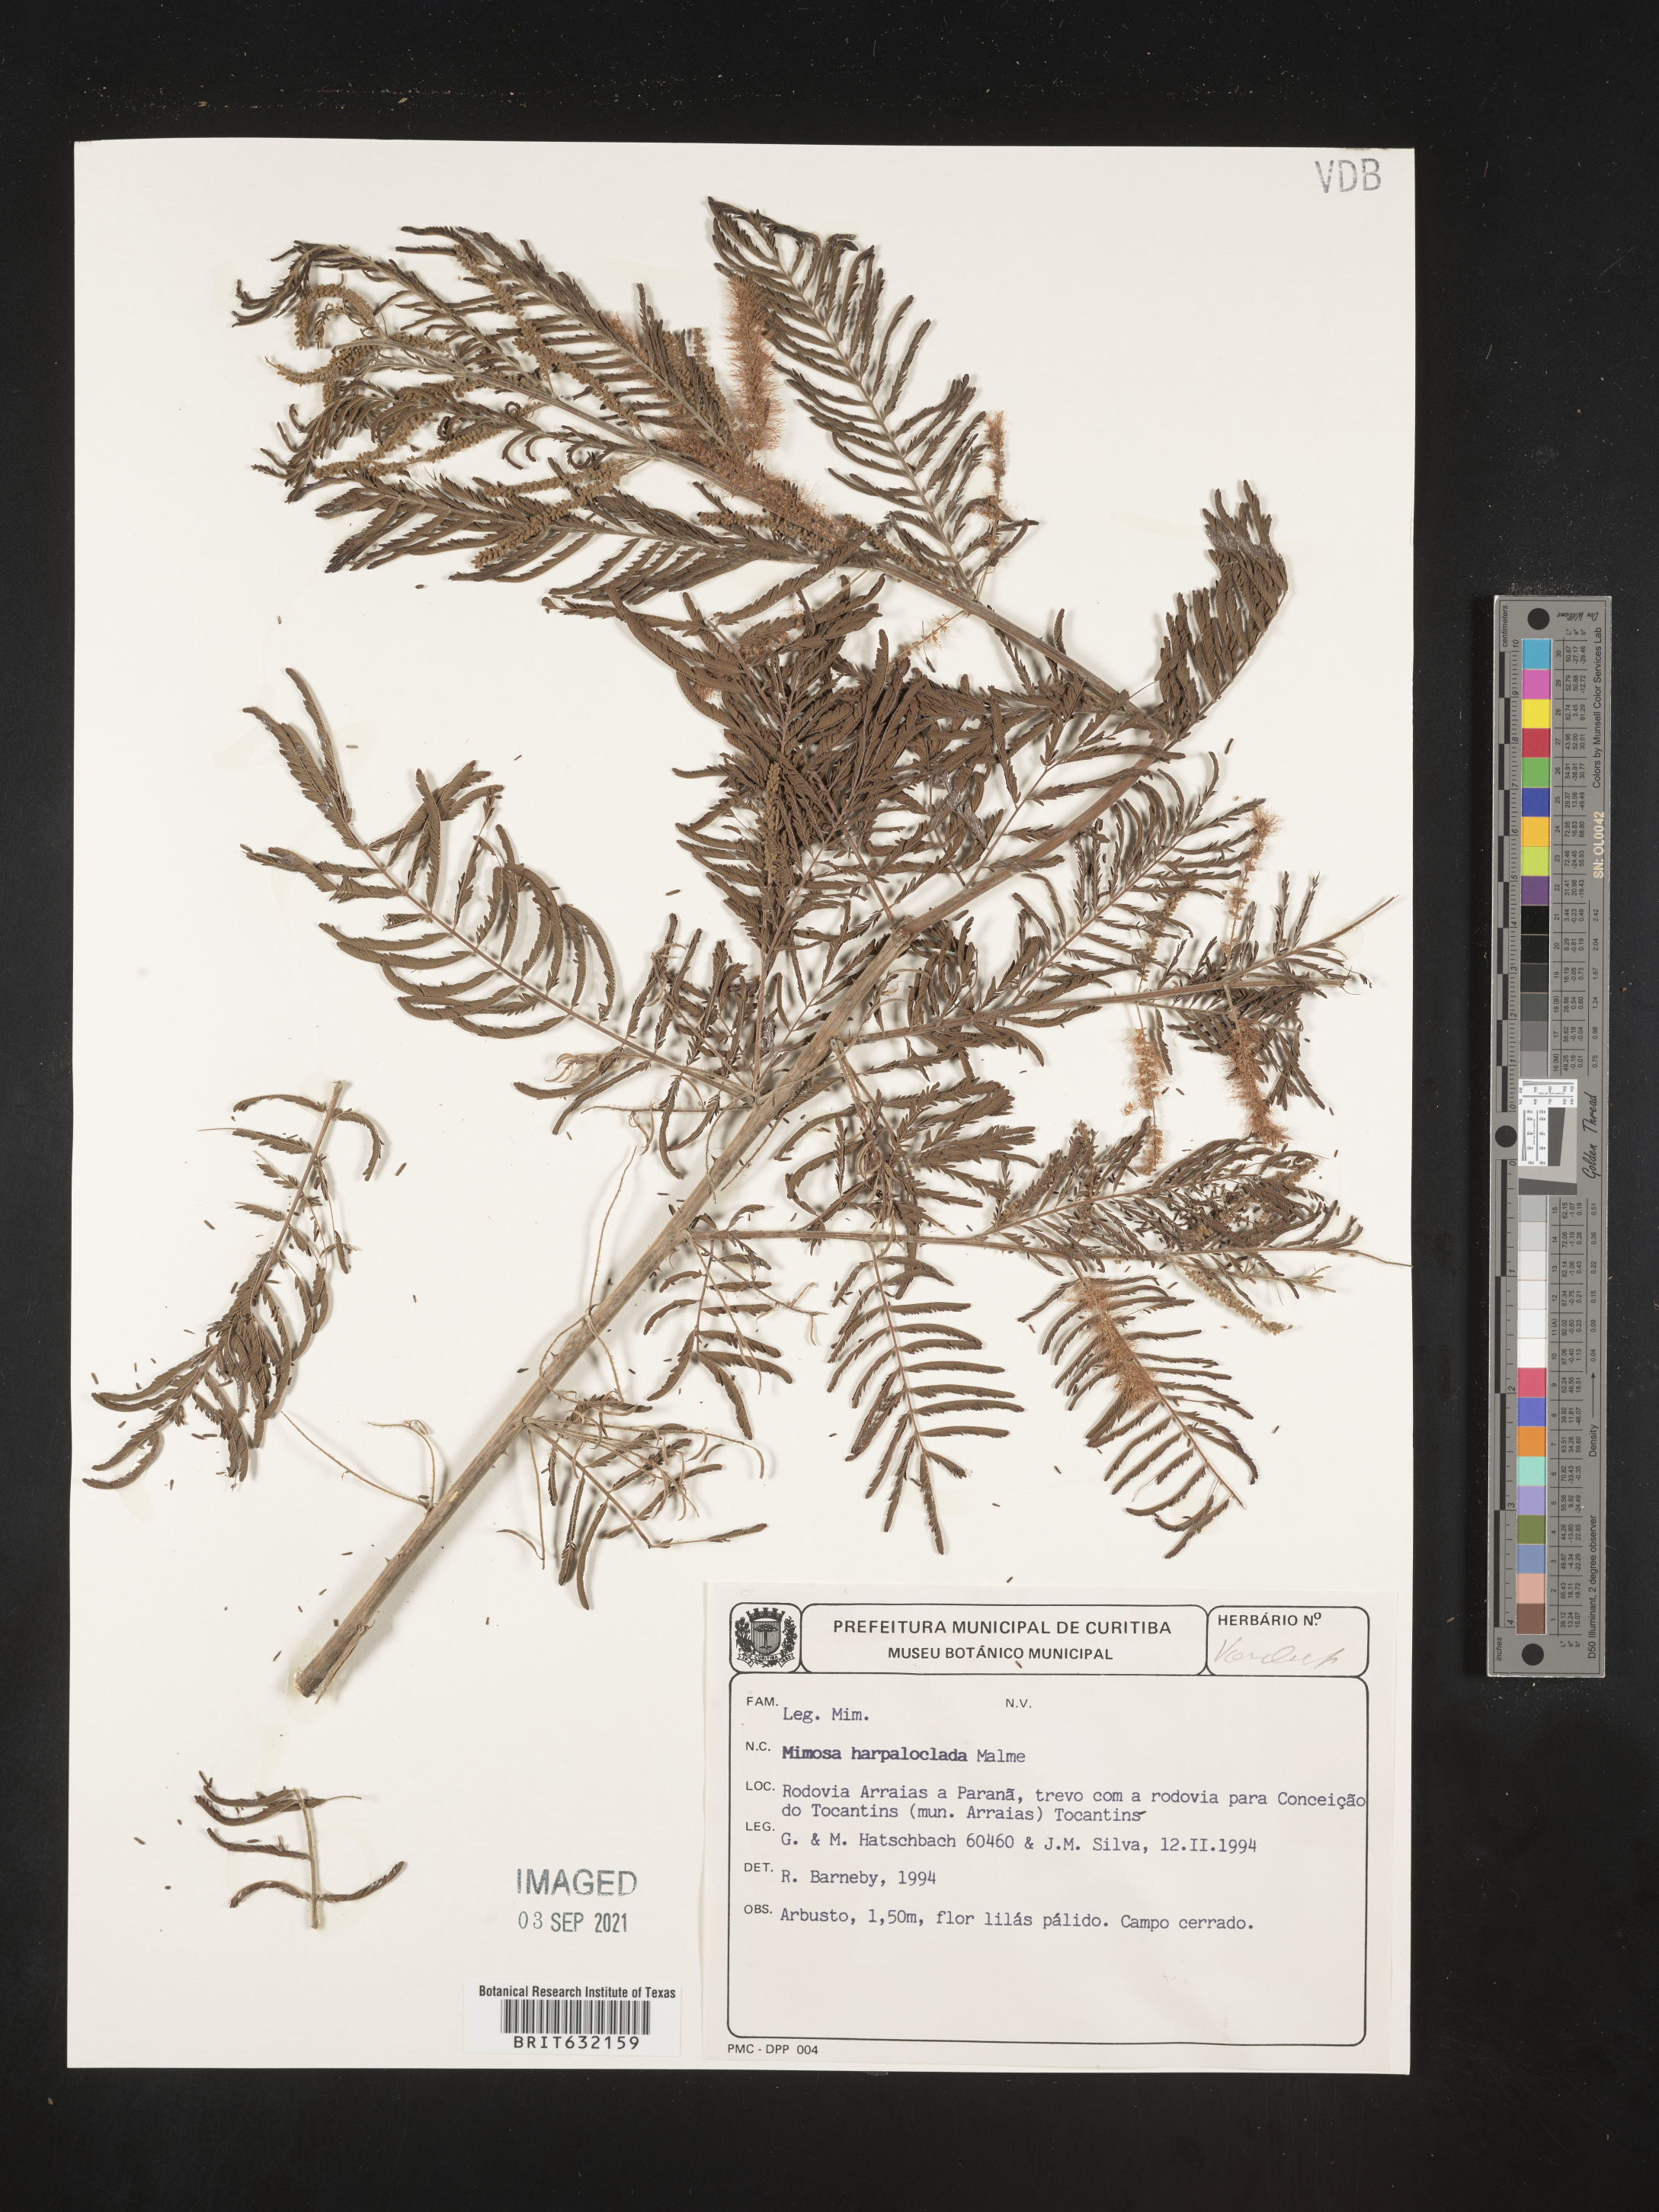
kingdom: Plantae
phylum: Tracheophyta
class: Magnoliopsida
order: Fabales
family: Fabaceae
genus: Mimosa
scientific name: Mimosa
